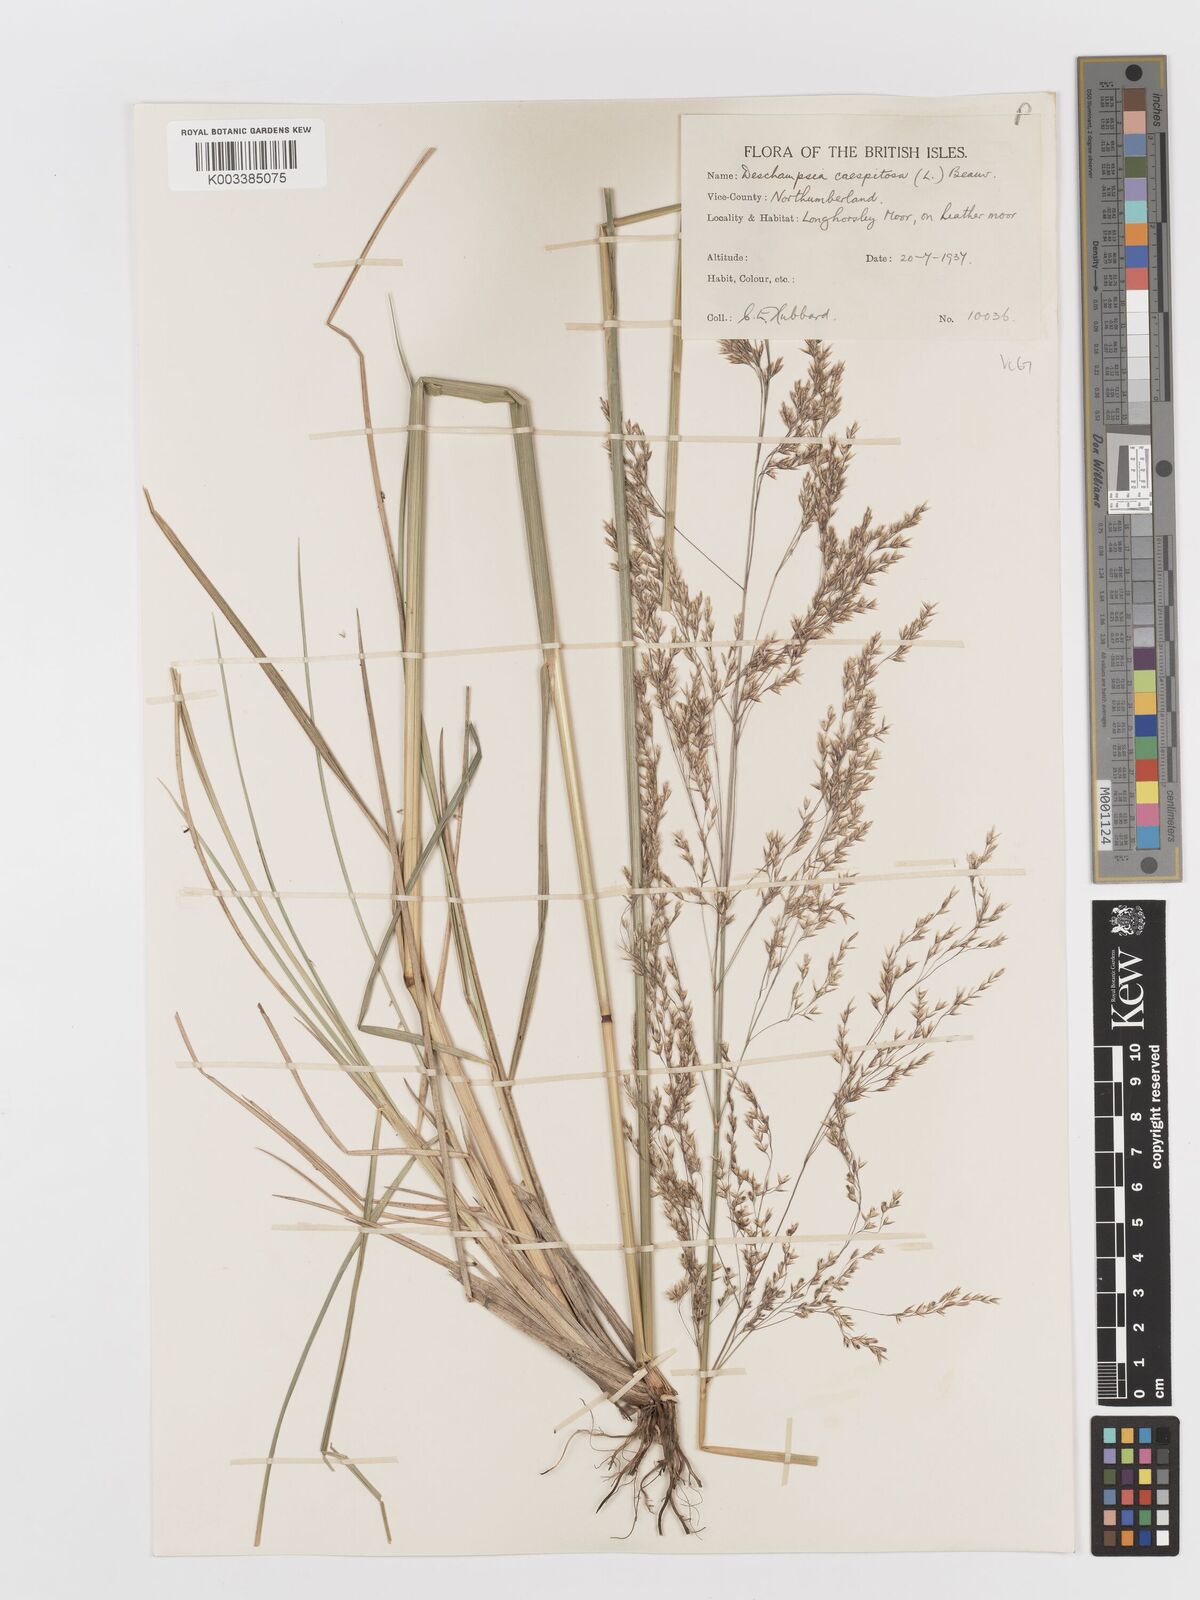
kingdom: Plantae
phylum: Tracheophyta
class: Liliopsida
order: Poales
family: Poaceae
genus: Deschampsia
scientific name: Deschampsia cespitosa
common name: Tufted hair-grass
